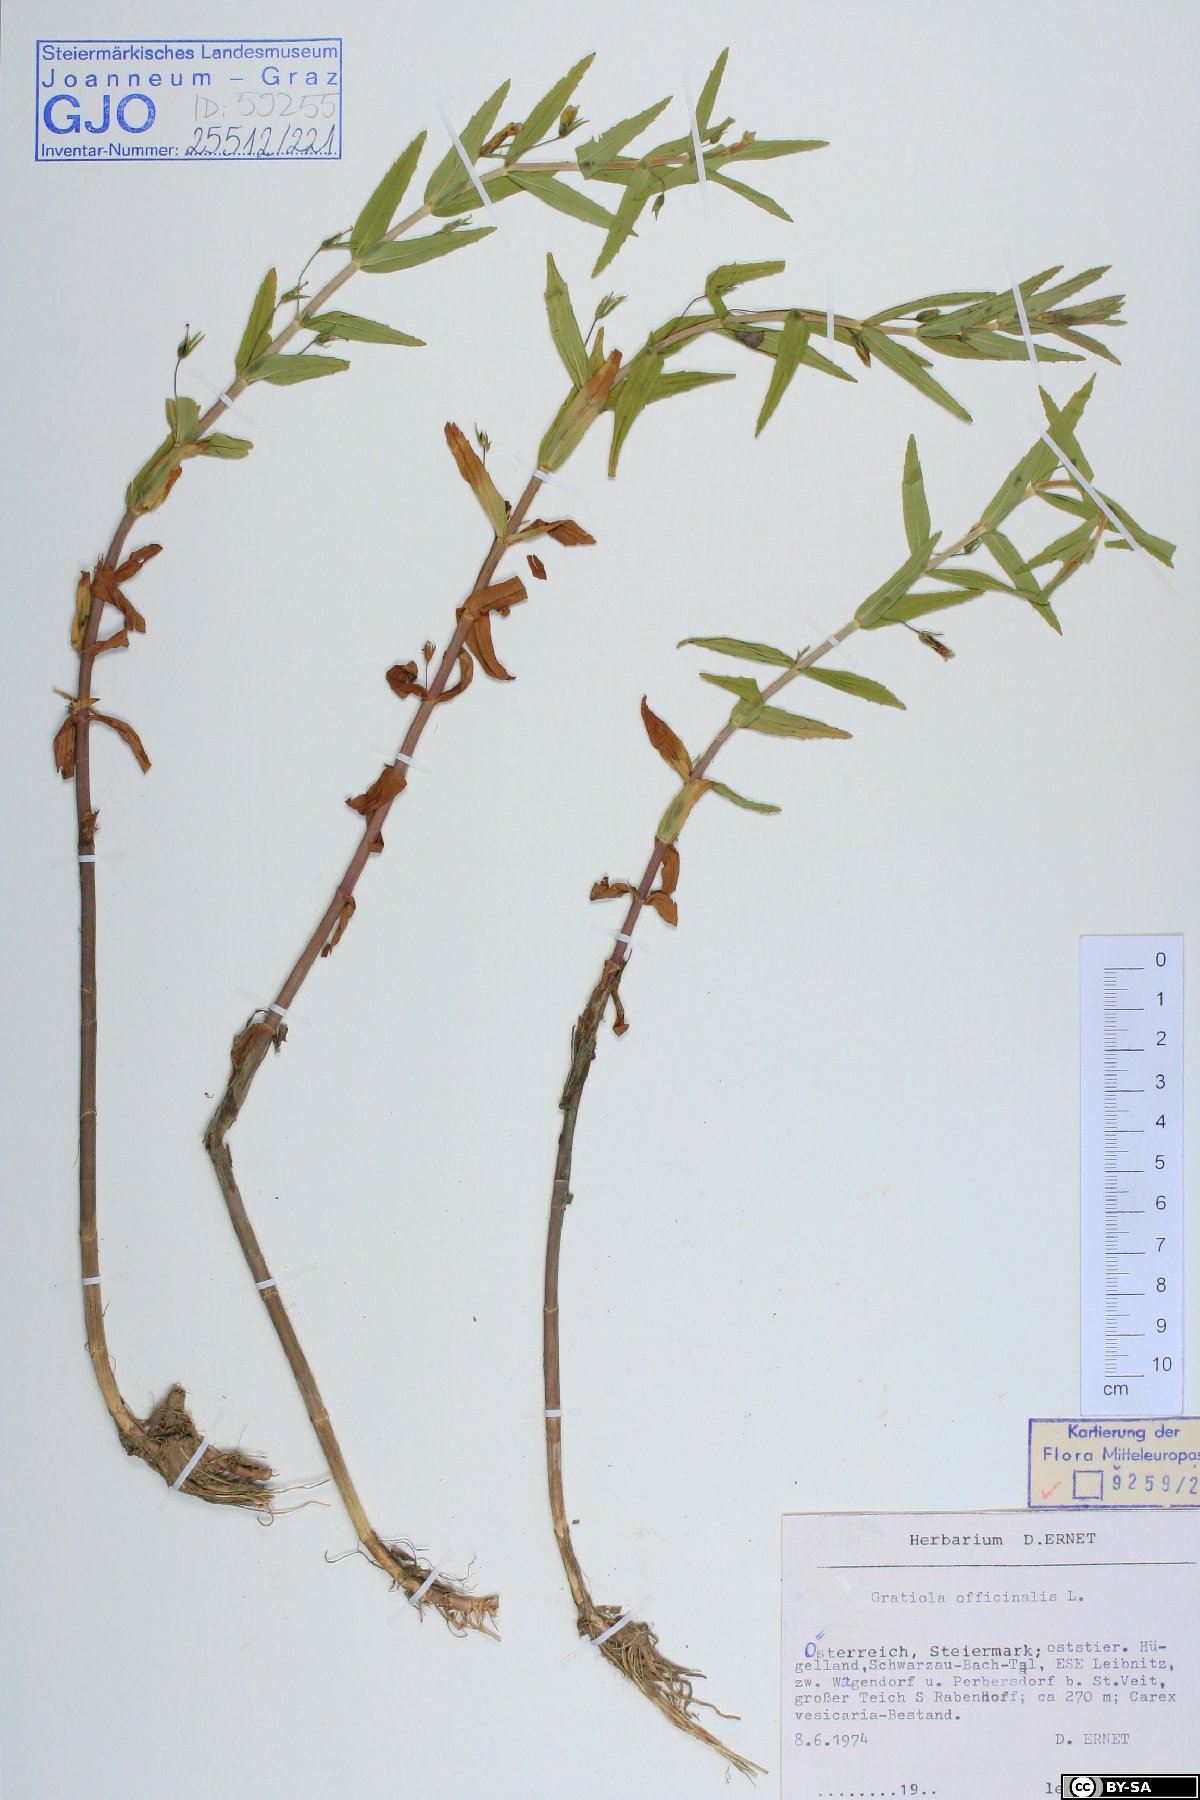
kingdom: Plantae
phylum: Tracheophyta
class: Magnoliopsida
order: Lamiales
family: Plantaginaceae
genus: Gratiola
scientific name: Gratiola officinalis
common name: Gratiola
